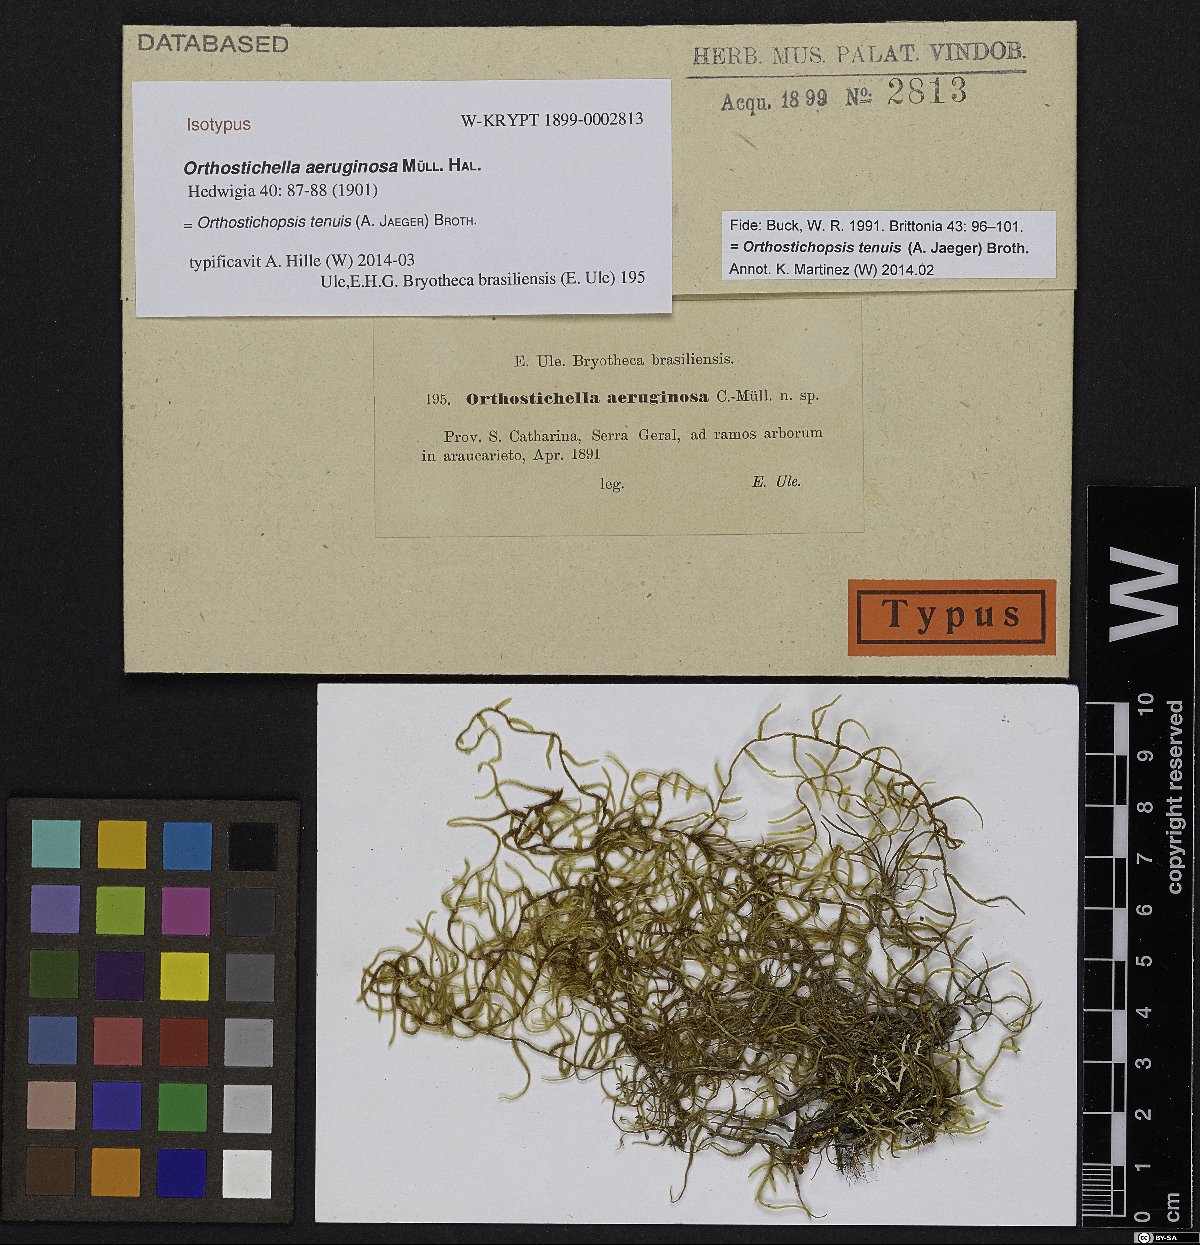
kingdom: Plantae
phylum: Bryophyta
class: Bryopsida
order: Hypnales
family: Pterobryaceae
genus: Orthostichopsis
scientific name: Orthostichopsis tenuis
